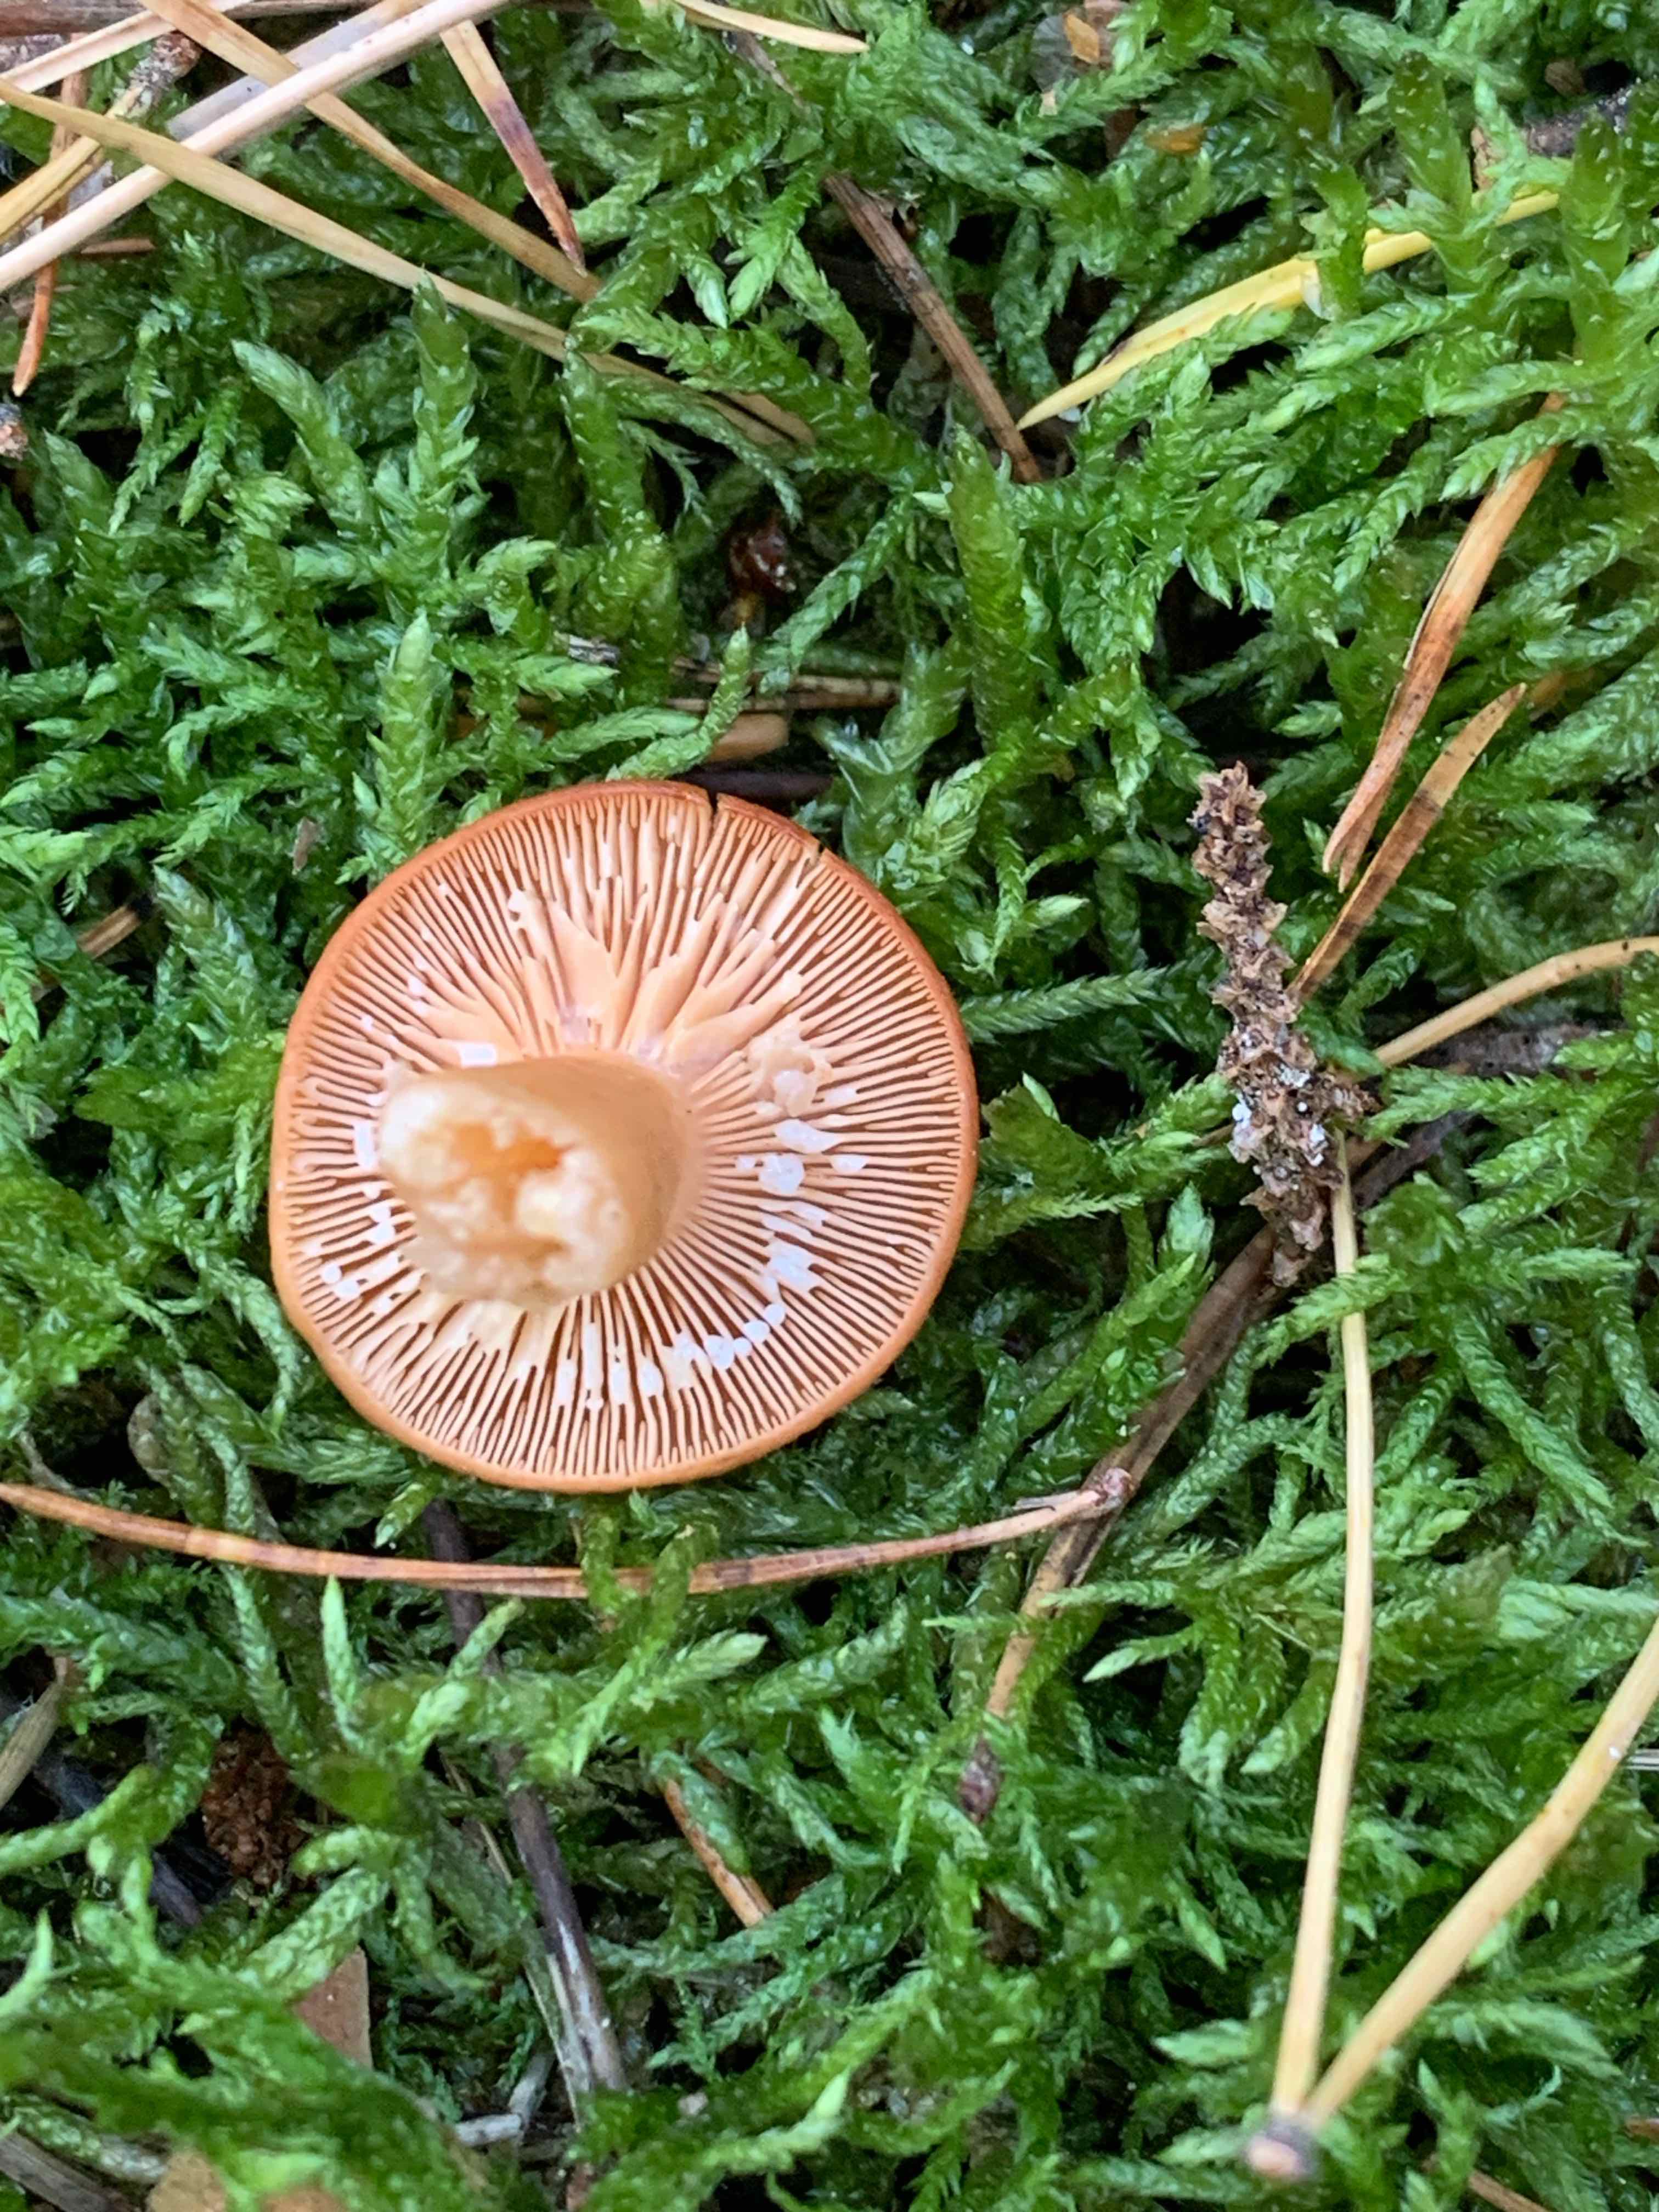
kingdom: Fungi
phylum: Basidiomycota
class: Agaricomycetes
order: Russulales
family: Russulaceae
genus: Lactarius
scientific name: Lactarius aurantiacus
